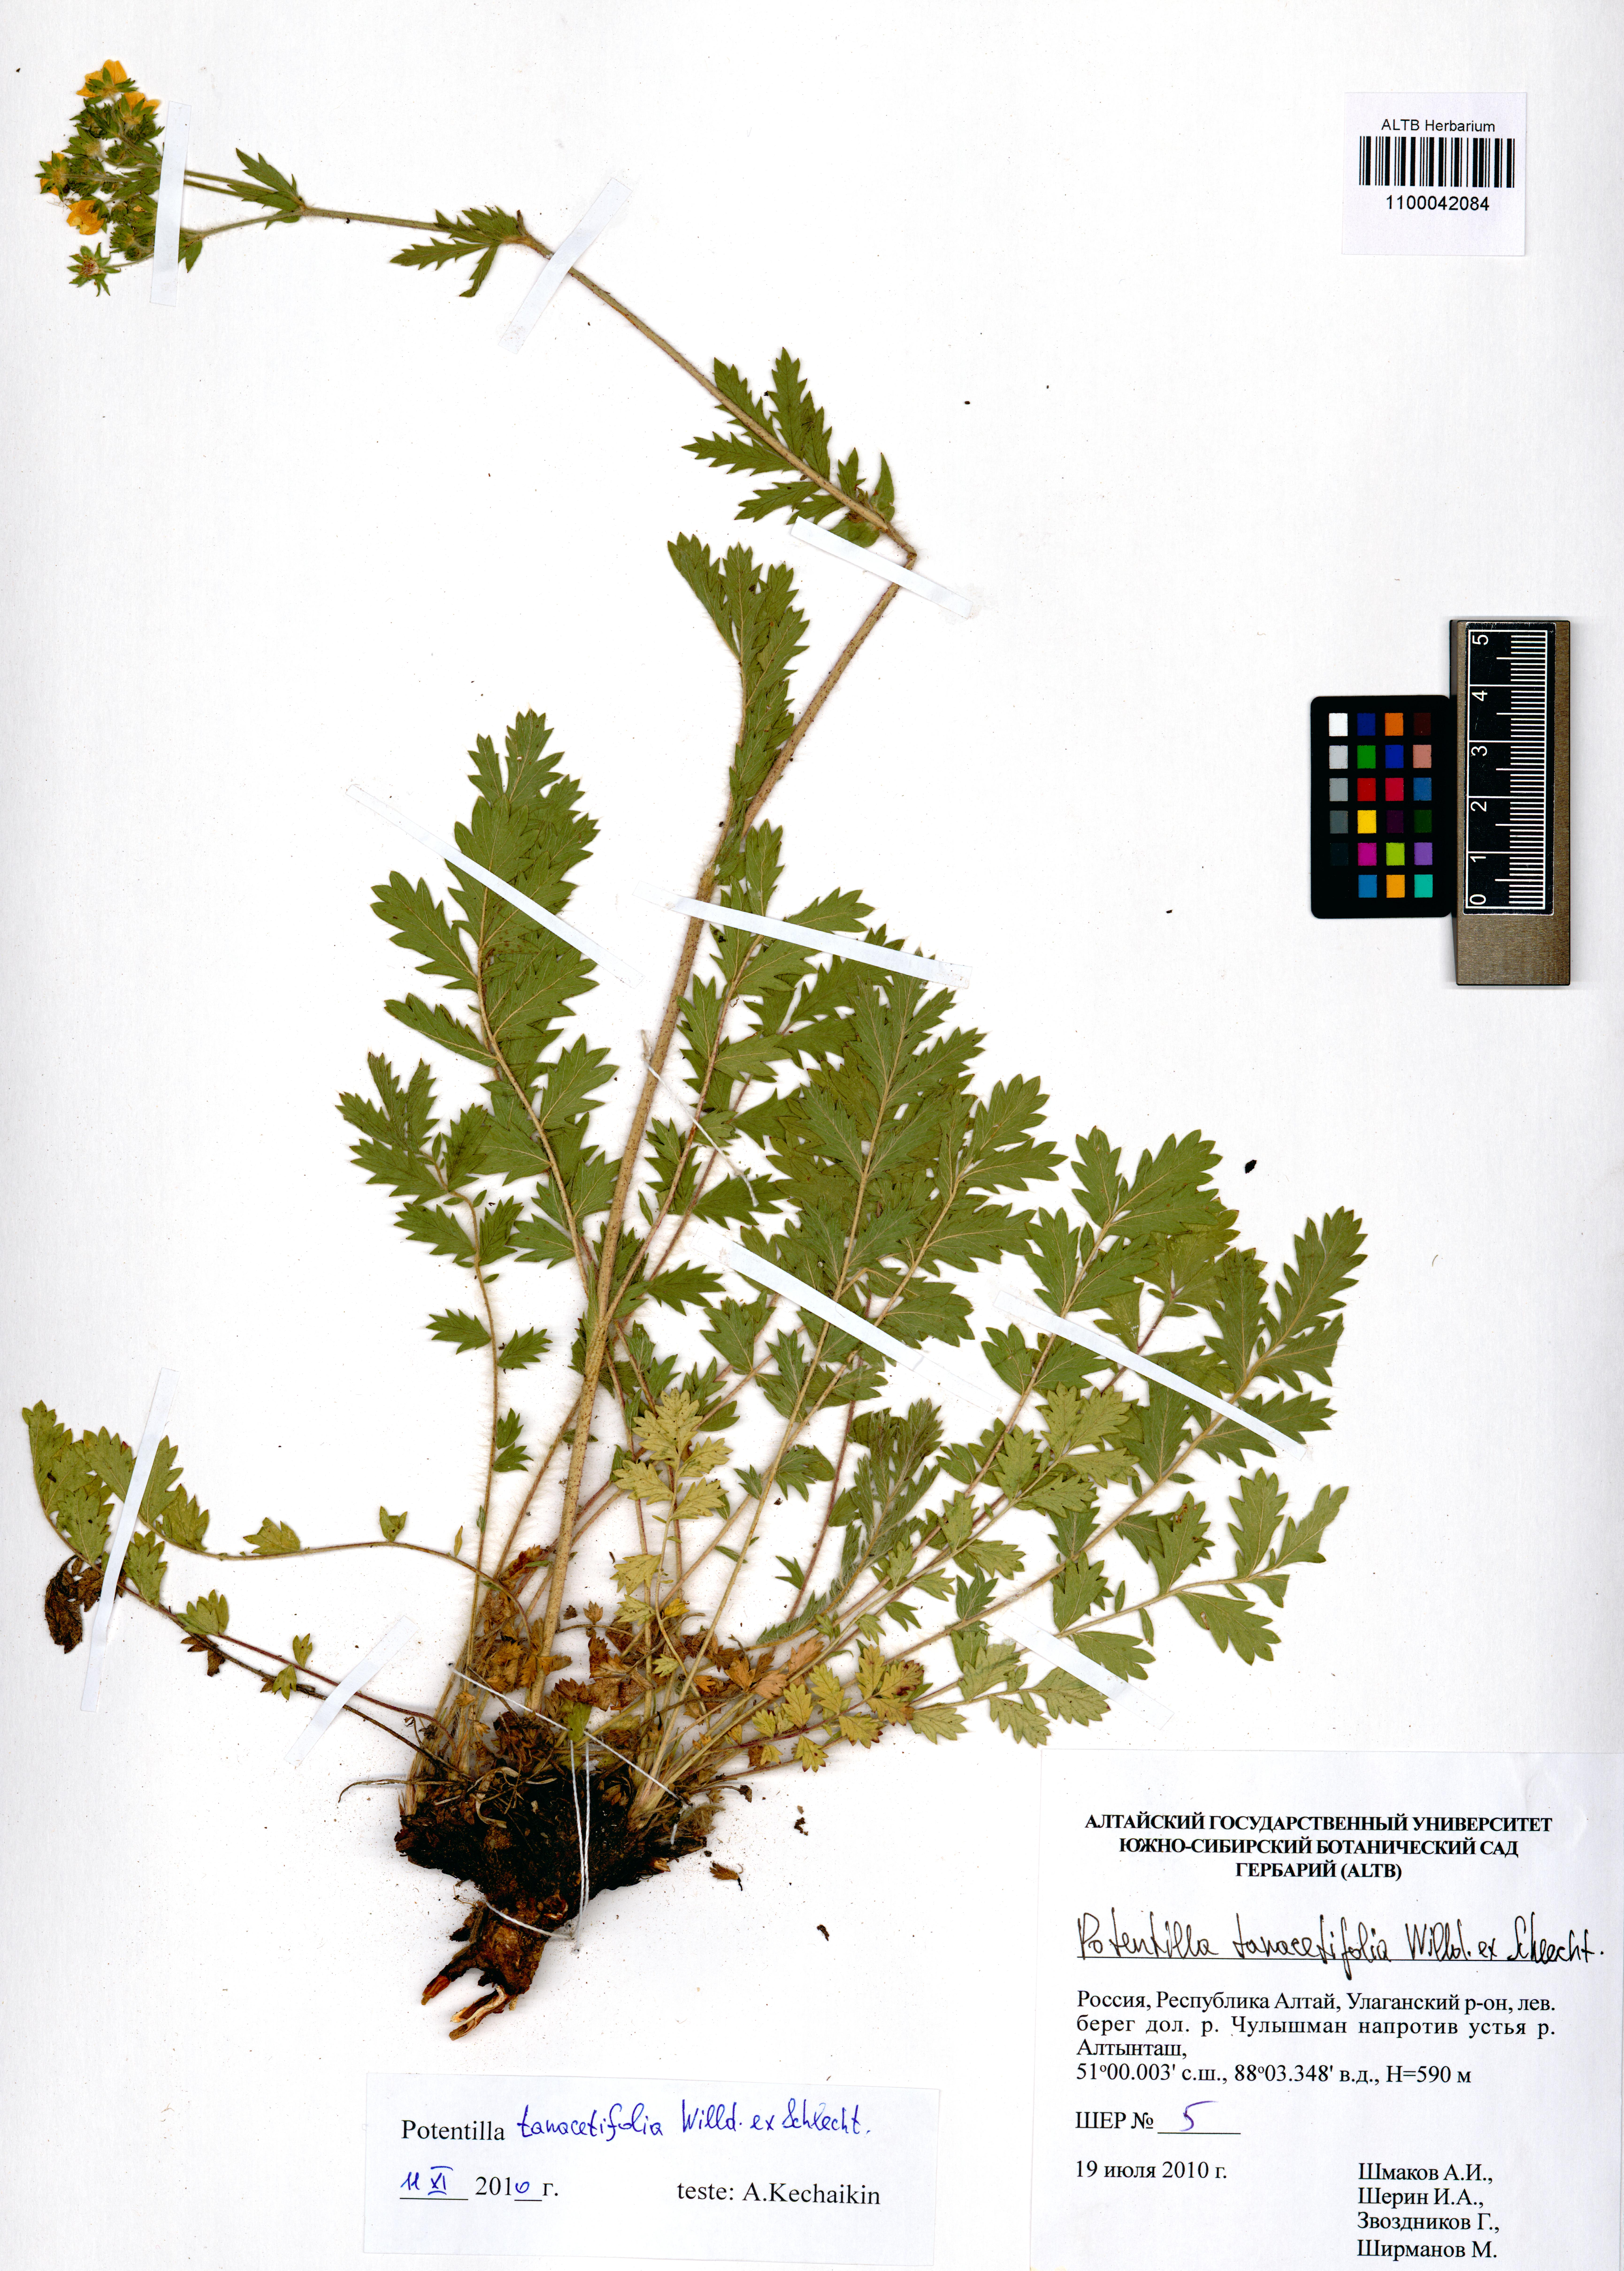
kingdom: Plantae
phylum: Tracheophyta
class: Magnoliopsida
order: Rosales
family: Rosaceae
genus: Potentilla
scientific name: Potentilla tanacetifolia
